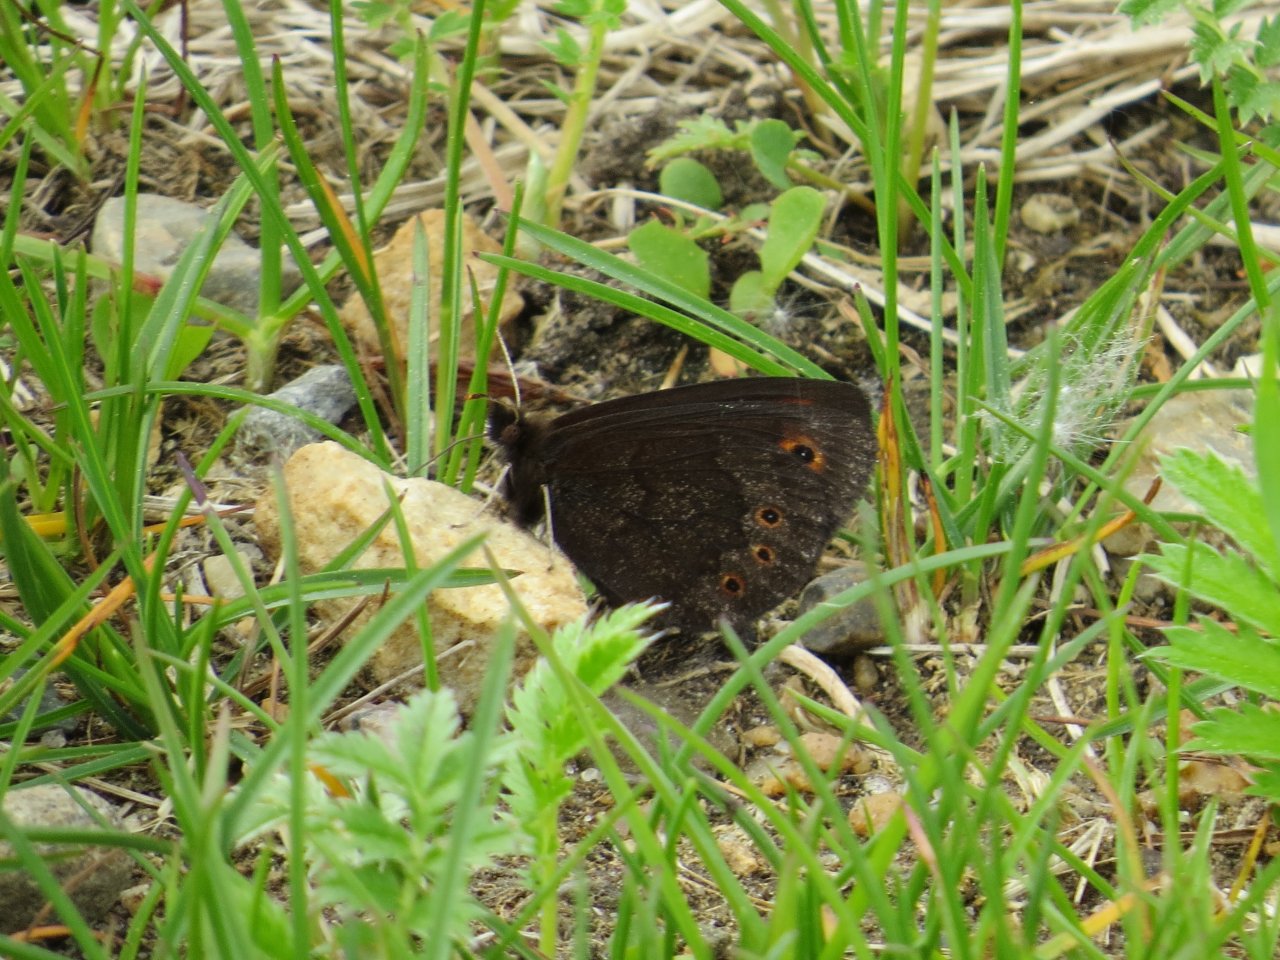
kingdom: Animalia
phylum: Arthropoda
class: Insecta
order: Lepidoptera
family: Nymphalidae
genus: Erebia
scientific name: Erebia epipsodea
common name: Common Alpine
